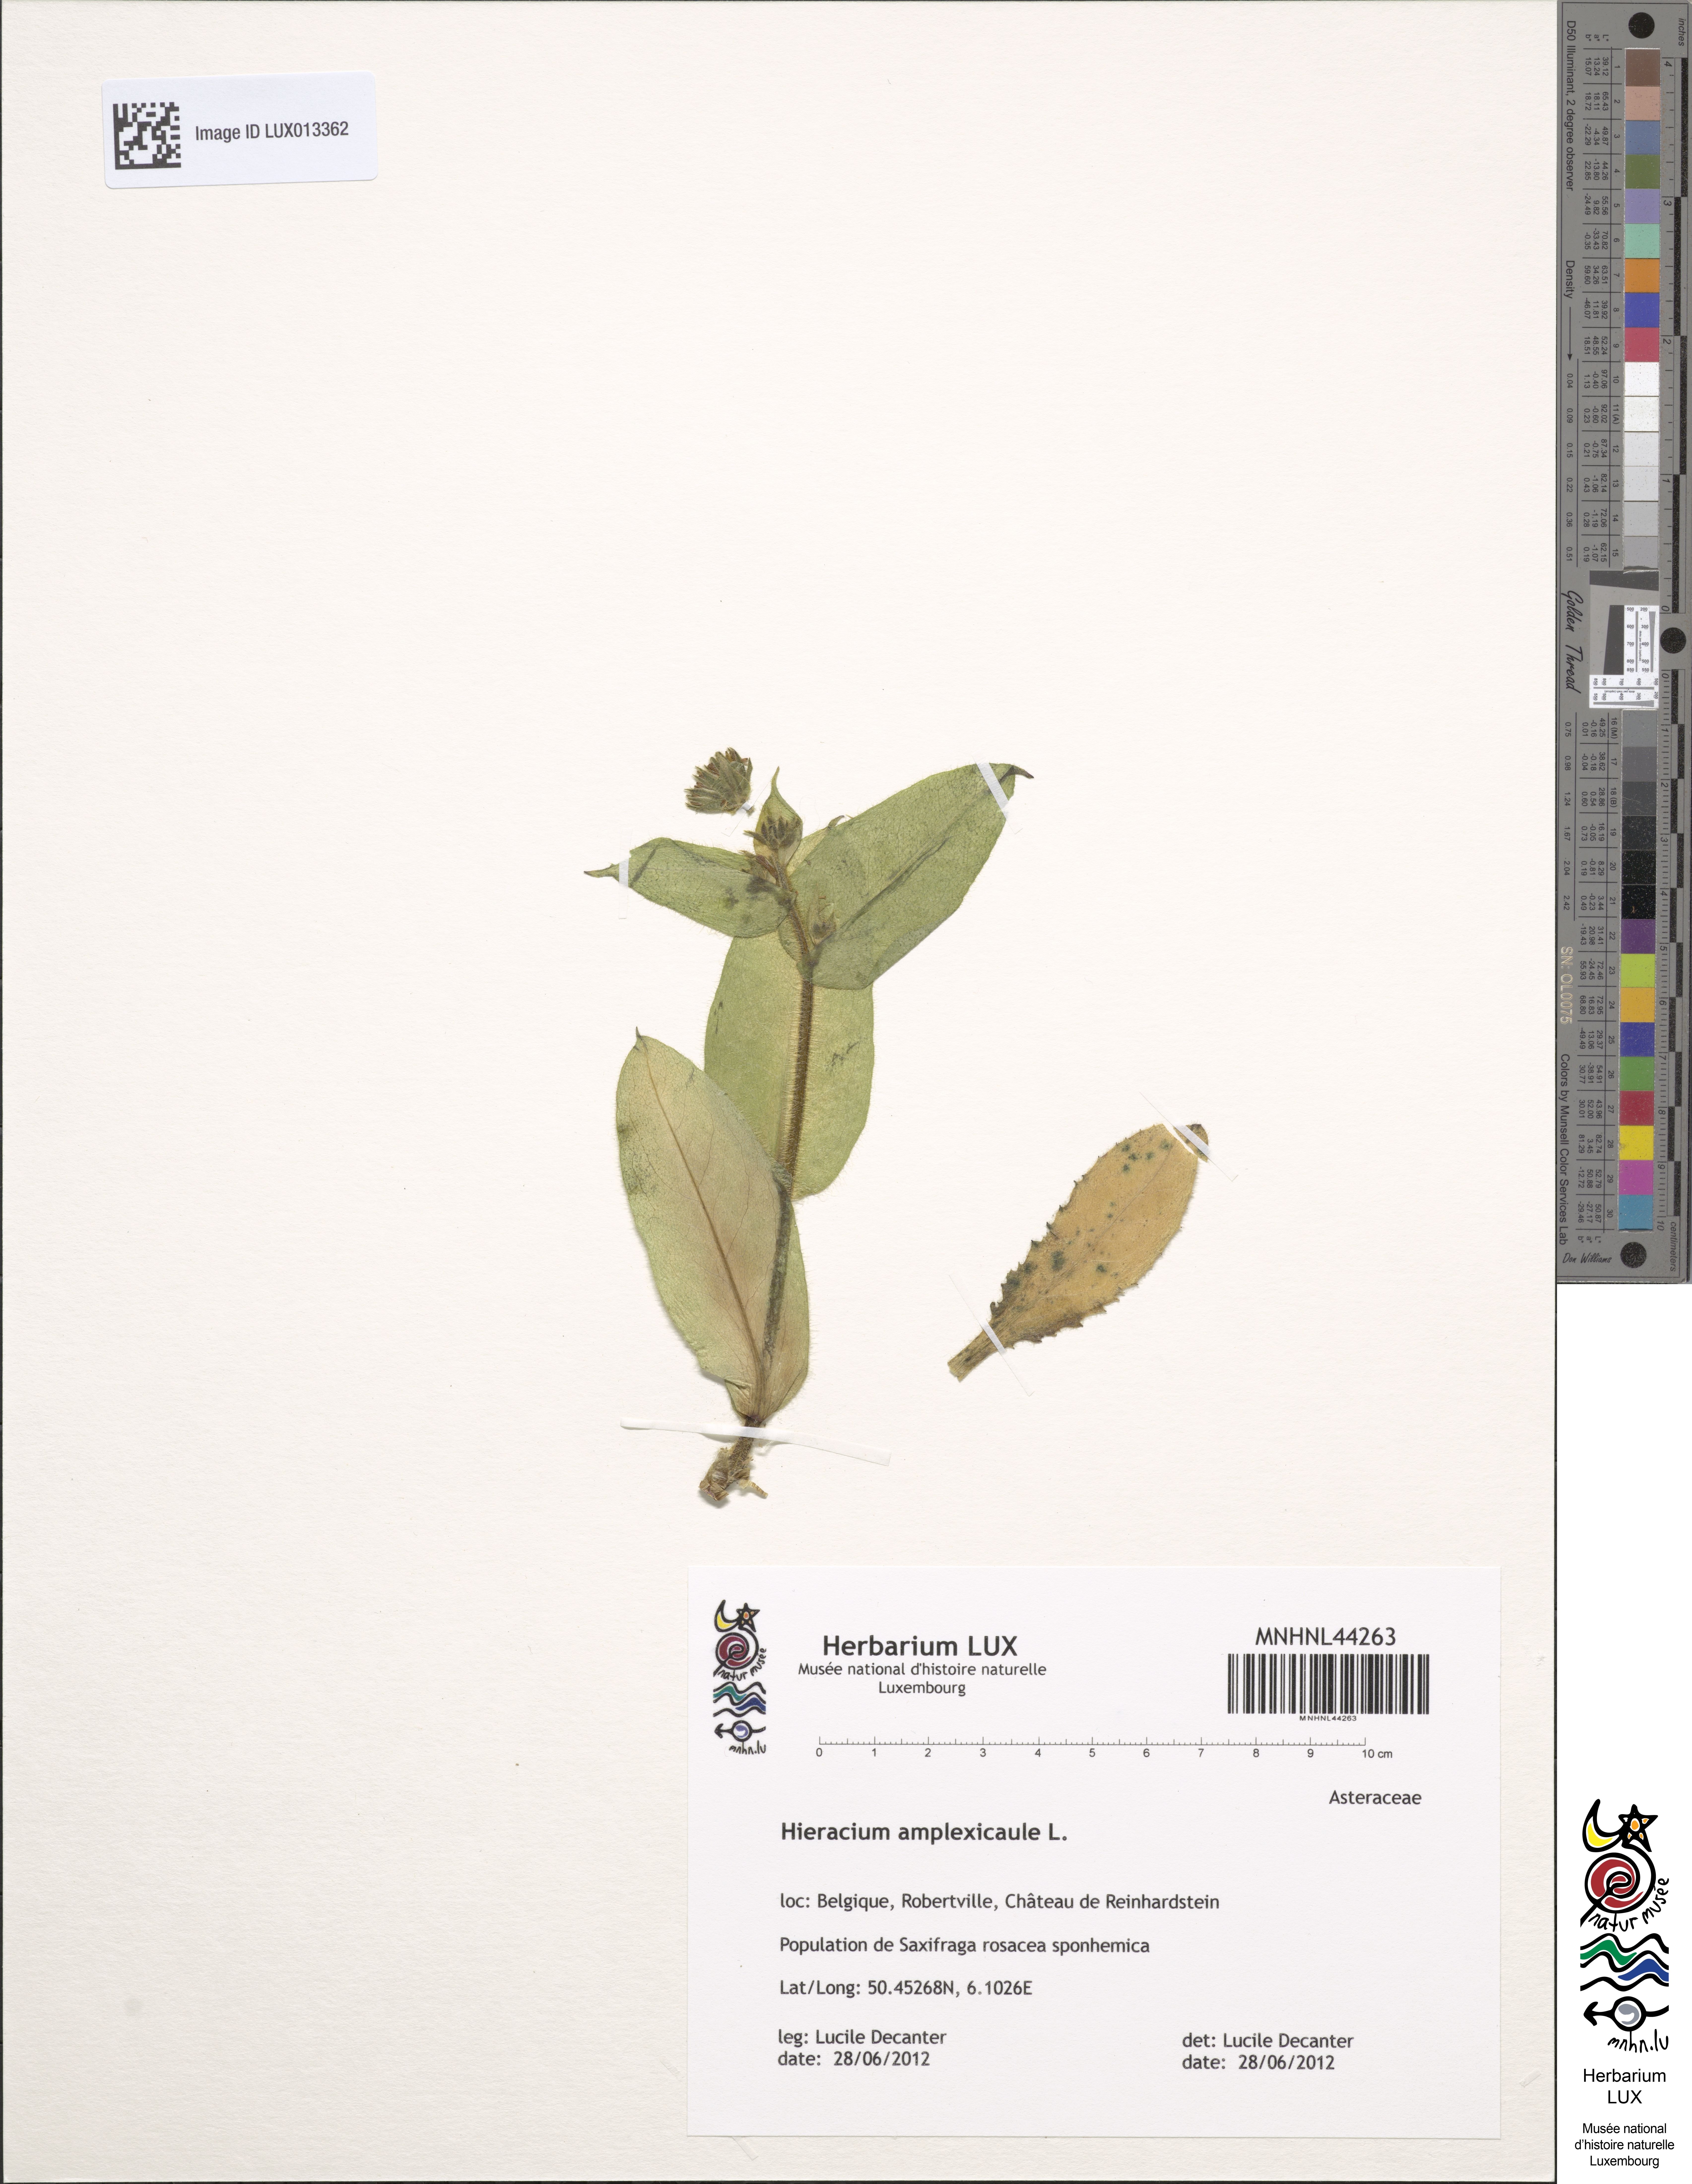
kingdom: Plantae
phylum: Tracheophyta
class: Magnoliopsida
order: Asterales
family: Asteraceae
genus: Hieracium
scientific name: Hieracium amplexicaule
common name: Sticky hawkweed
